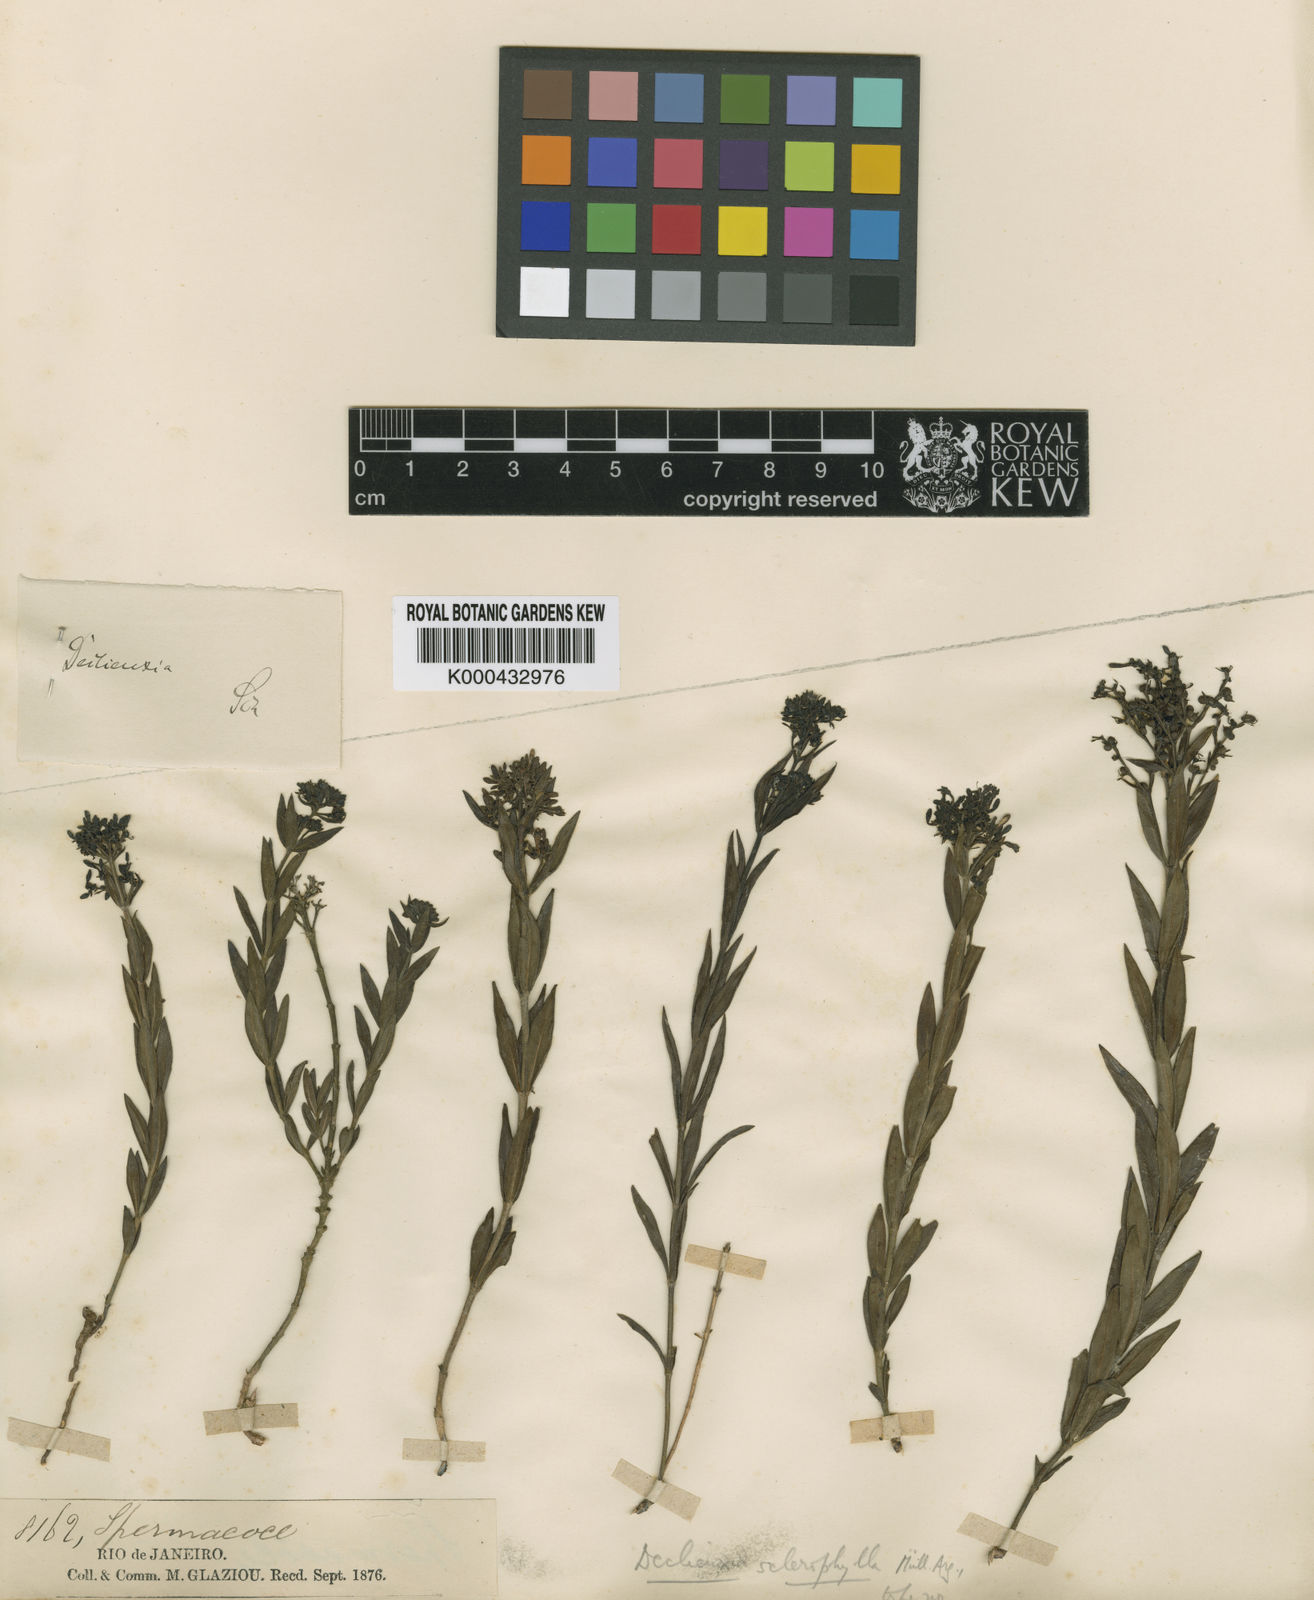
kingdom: Plantae
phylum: Tracheophyta
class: Magnoliopsida
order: Gentianales
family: Rubiaceae
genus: Declieuxia
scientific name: Declieuxia
